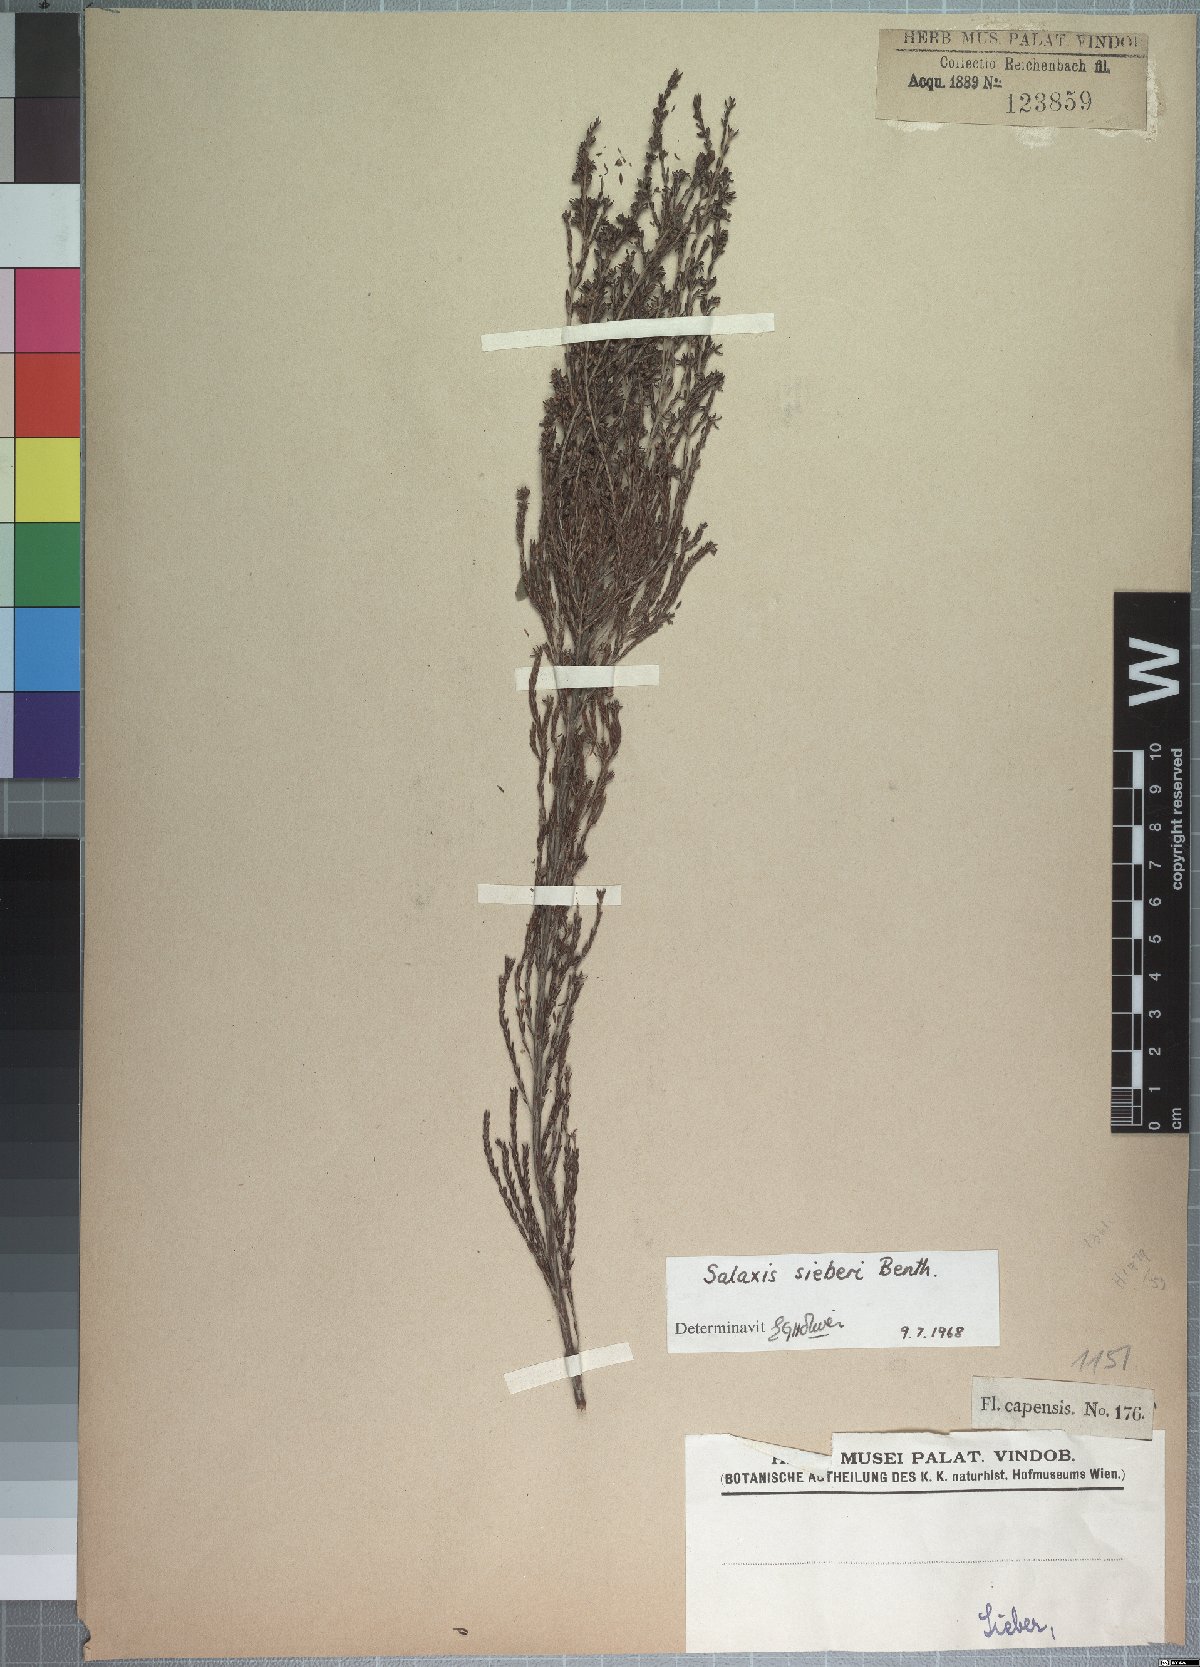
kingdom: Plantae
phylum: Tracheophyta
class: Magnoliopsida
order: Ericales
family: Ericaceae
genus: Erica
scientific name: Erica axillaris
